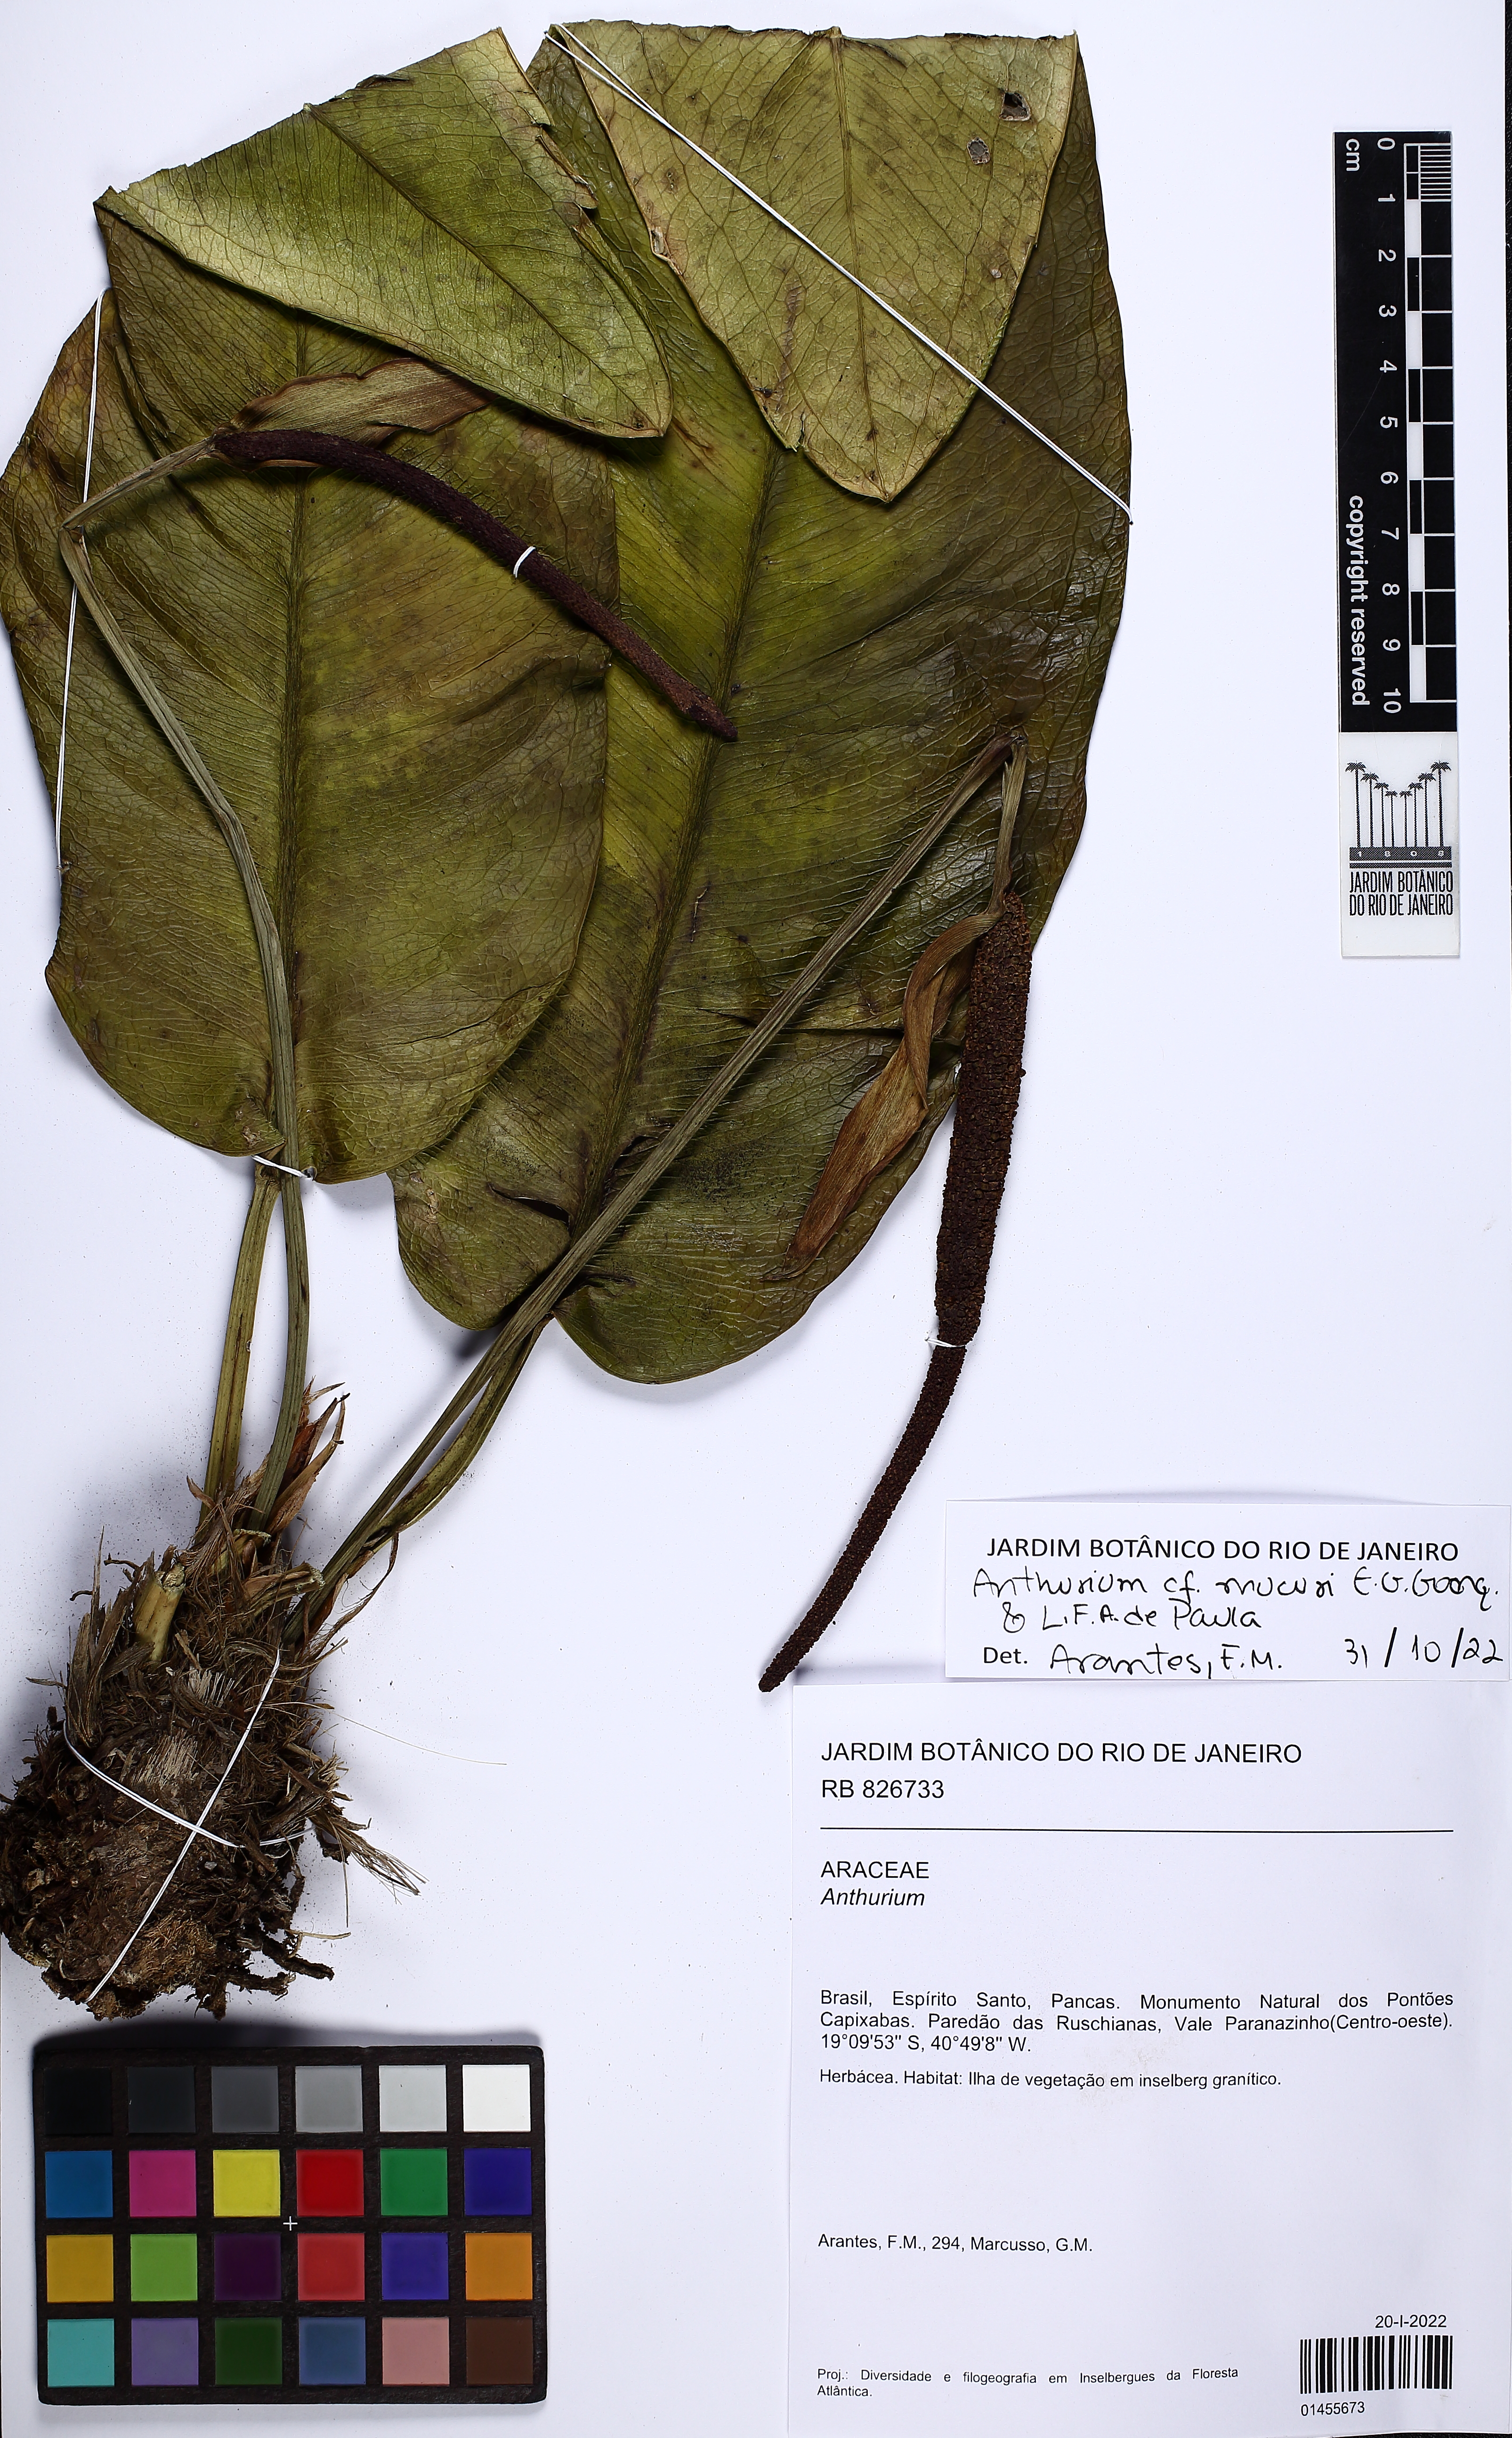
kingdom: Plantae
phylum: Tracheophyta
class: Liliopsida
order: Alismatales
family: Araceae
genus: Anthurium
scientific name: Anthurium mucuri
